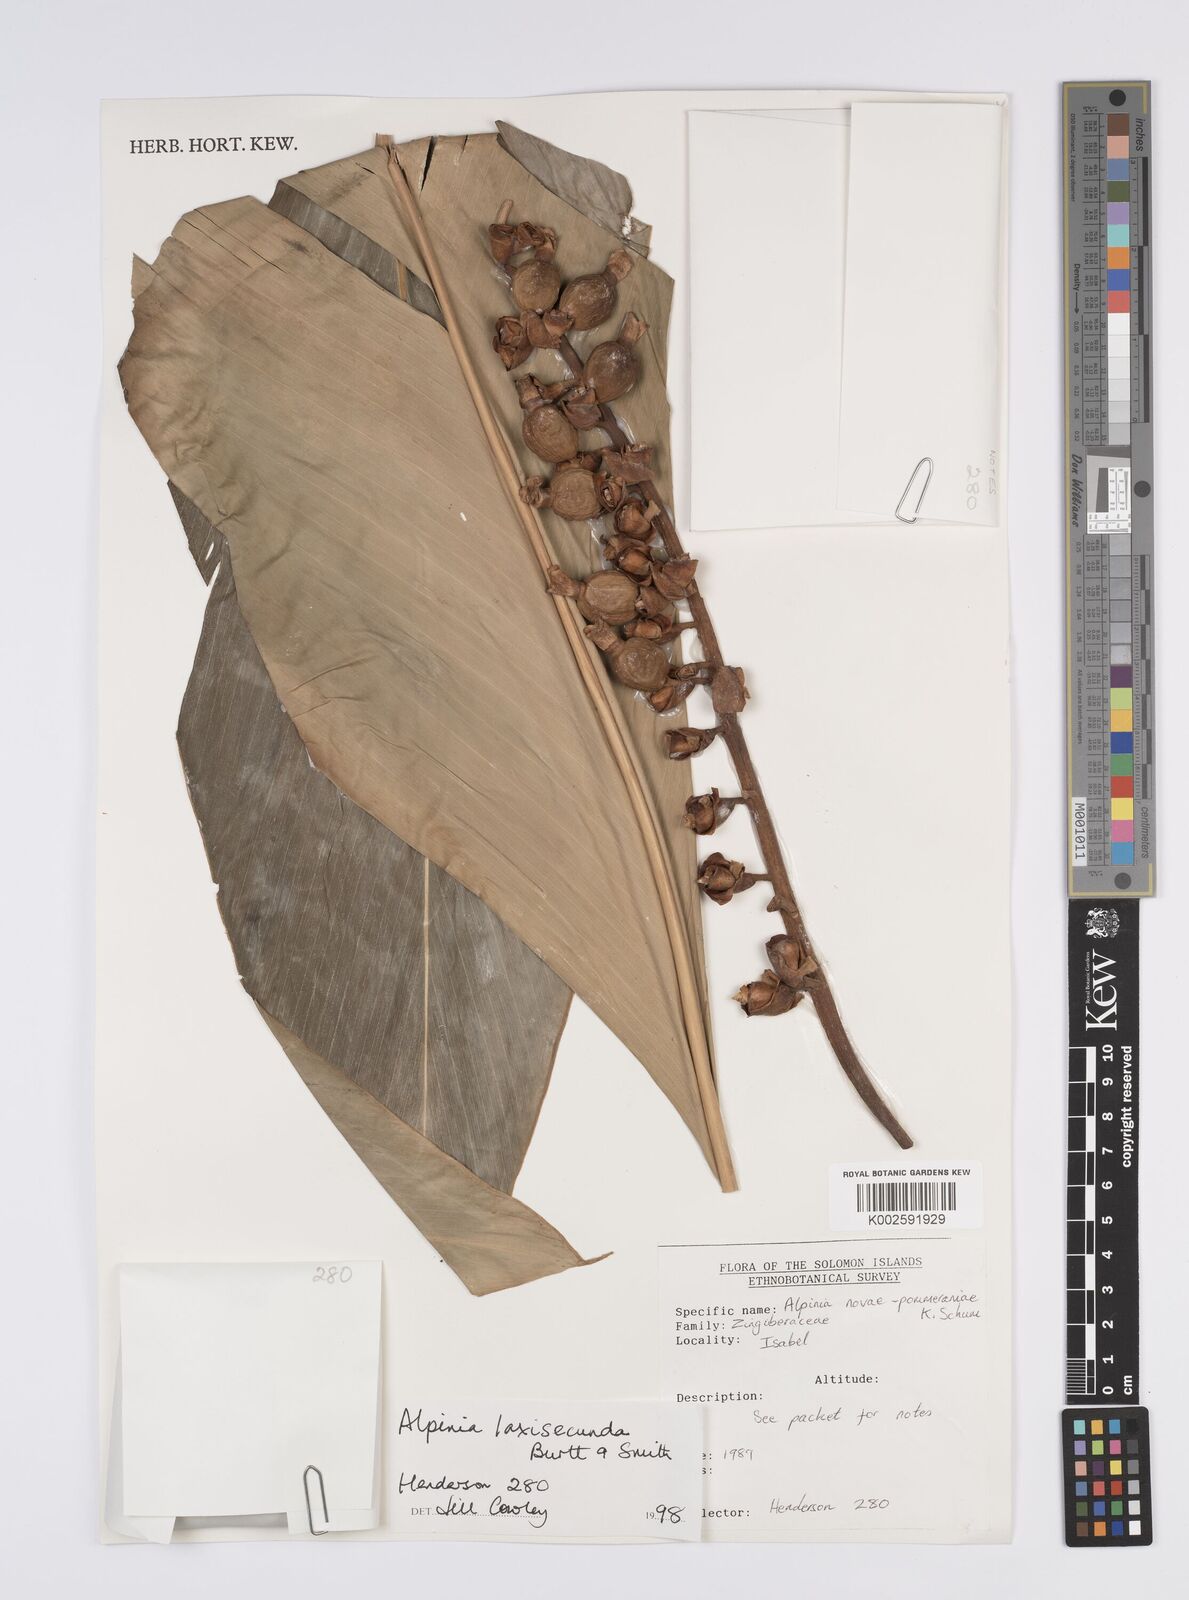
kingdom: Plantae
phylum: Tracheophyta
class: Liliopsida
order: Zingiberales
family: Zingiberaceae
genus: Alpinia
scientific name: Alpinia laxisecunda
